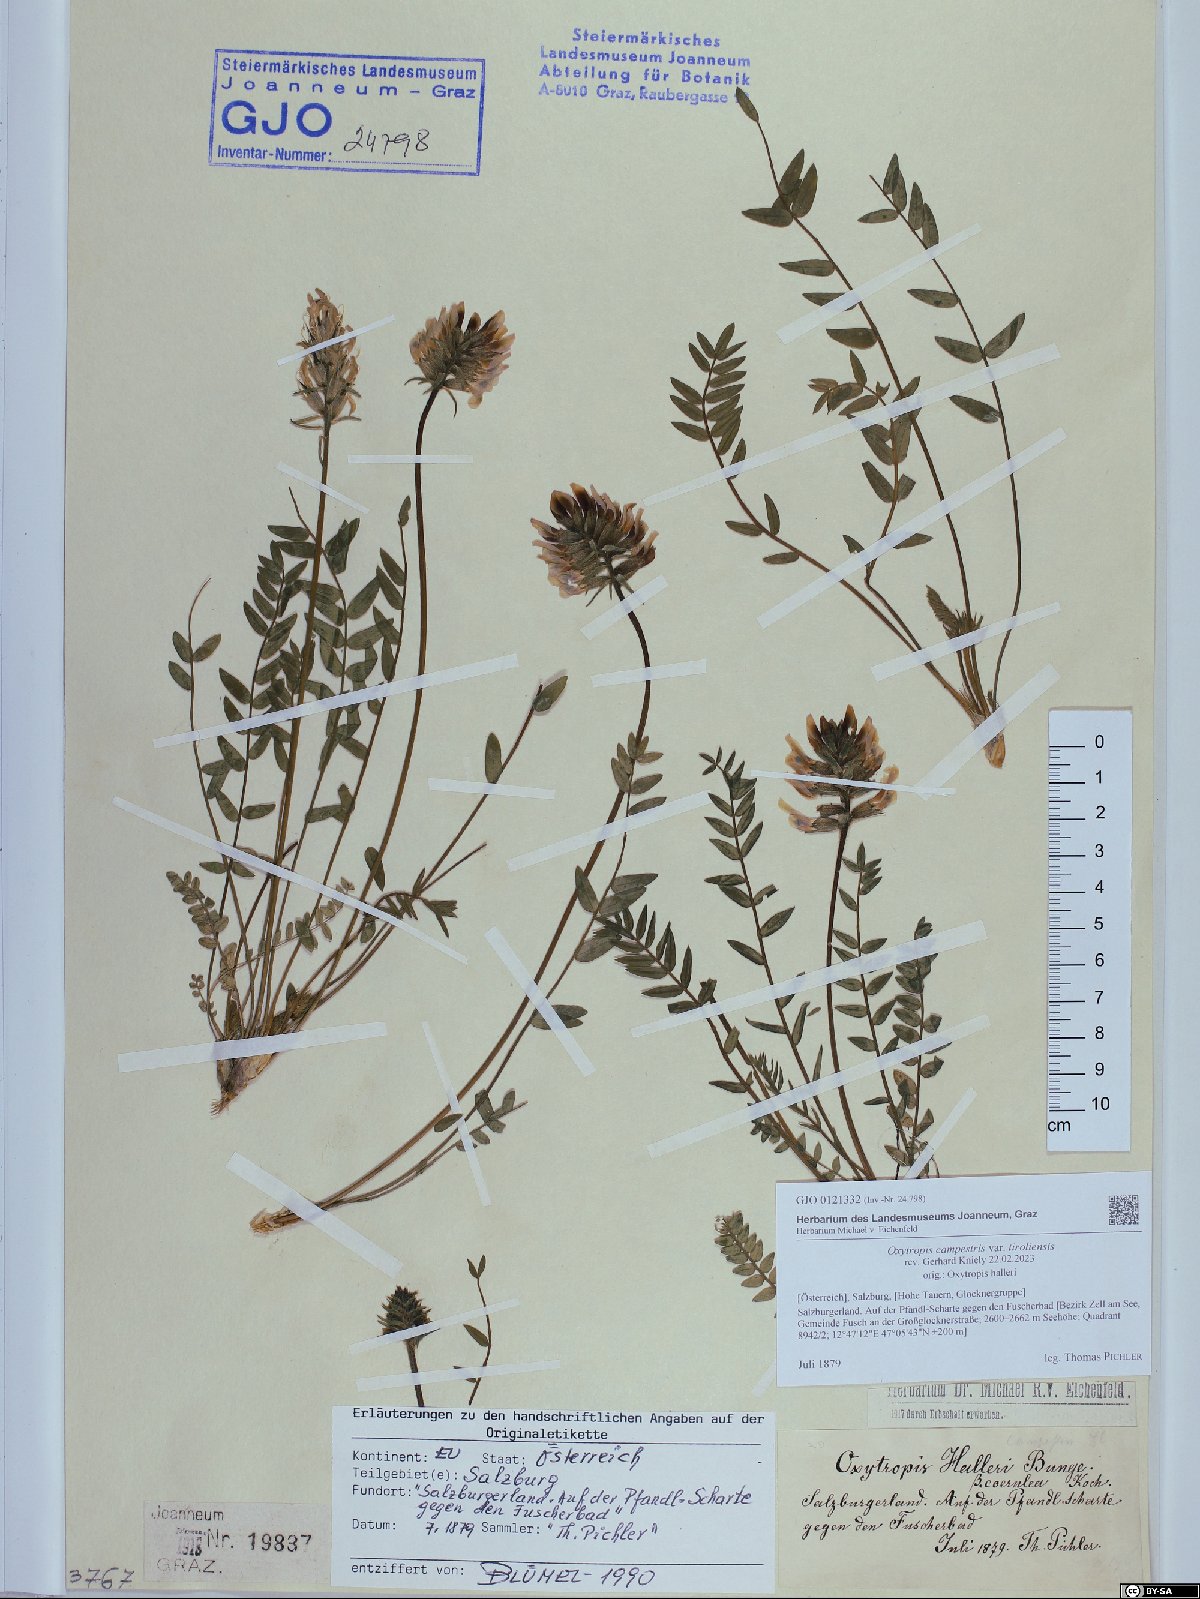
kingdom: Plantae
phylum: Tracheophyta
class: Magnoliopsida
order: Fabales
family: Fabaceae
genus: Oxytropis
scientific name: Oxytropis campestris
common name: Field locoweed
